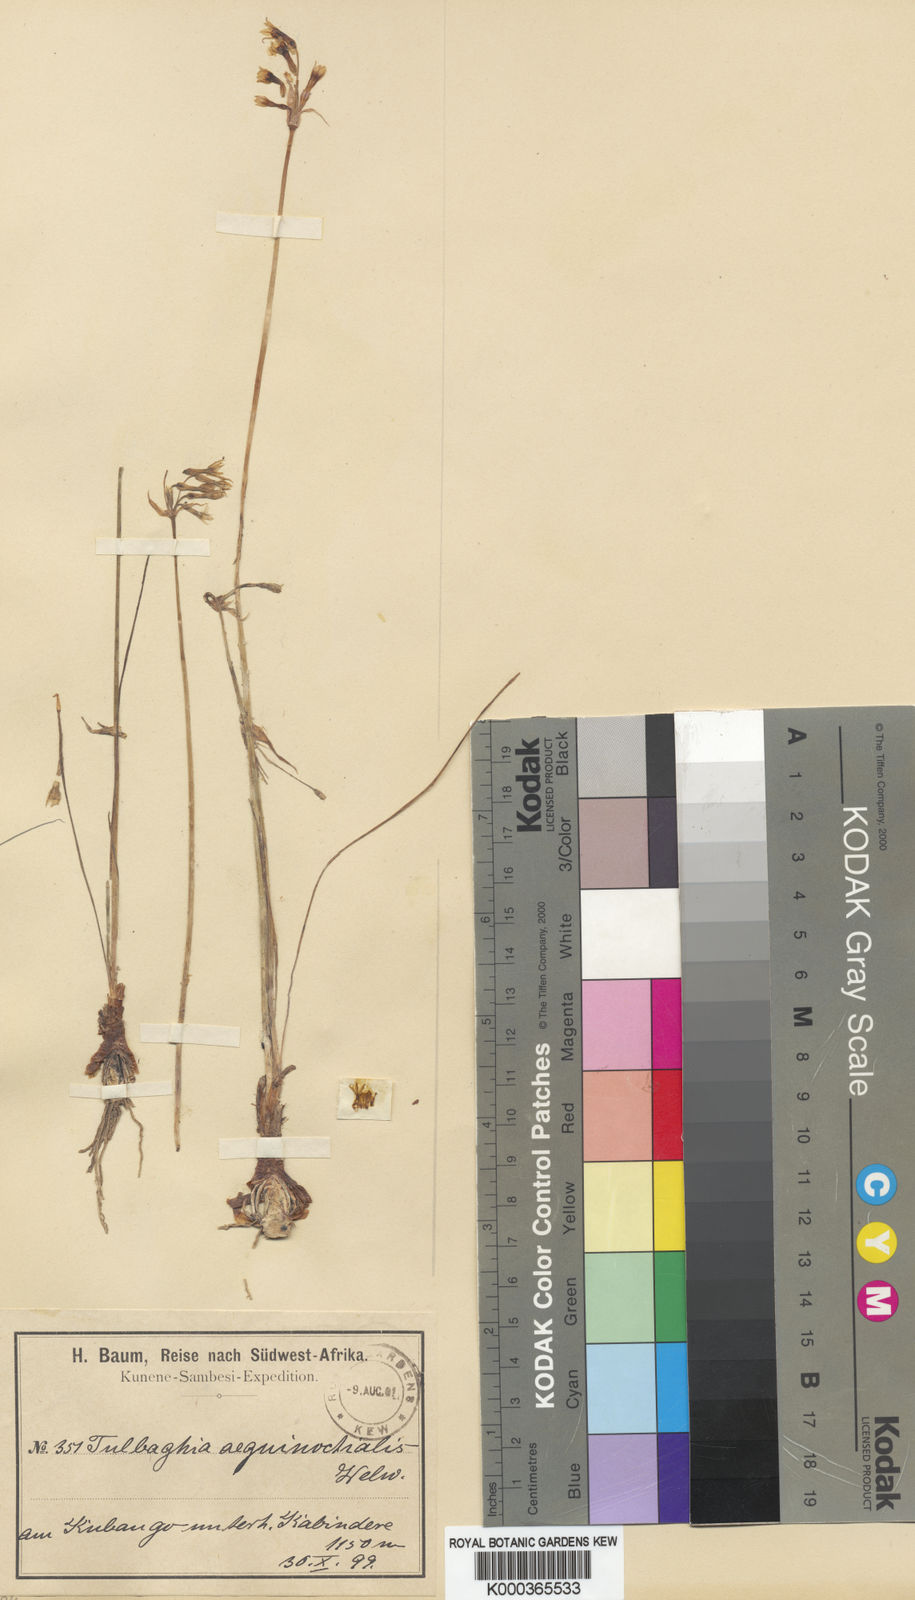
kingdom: Plantae
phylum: Tracheophyta
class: Liliopsida
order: Asparagales
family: Amaryllidaceae
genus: Tulbaghia
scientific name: Tulbaghia aequinoctialis
